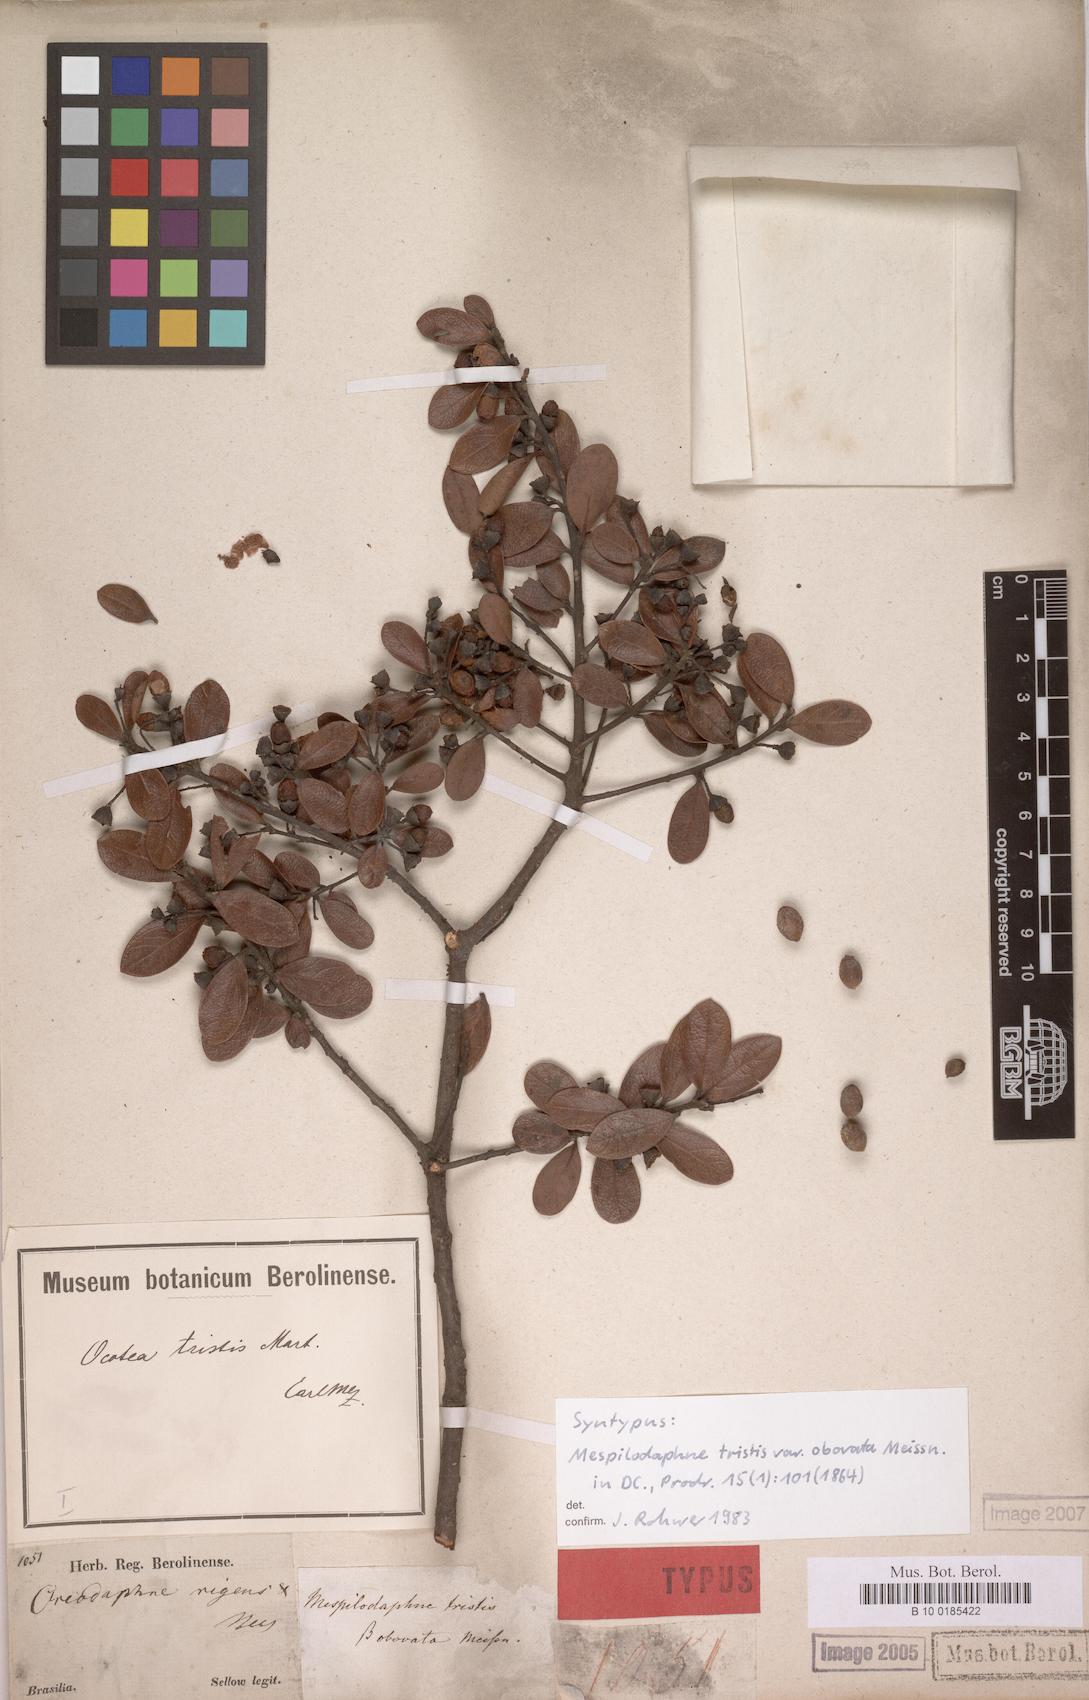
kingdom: Plantae
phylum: Tracheophyta
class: Magnoliopsida
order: Laurales
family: Lauraceae
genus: Mespilodaphne
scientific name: Mespilodaphne tristis
